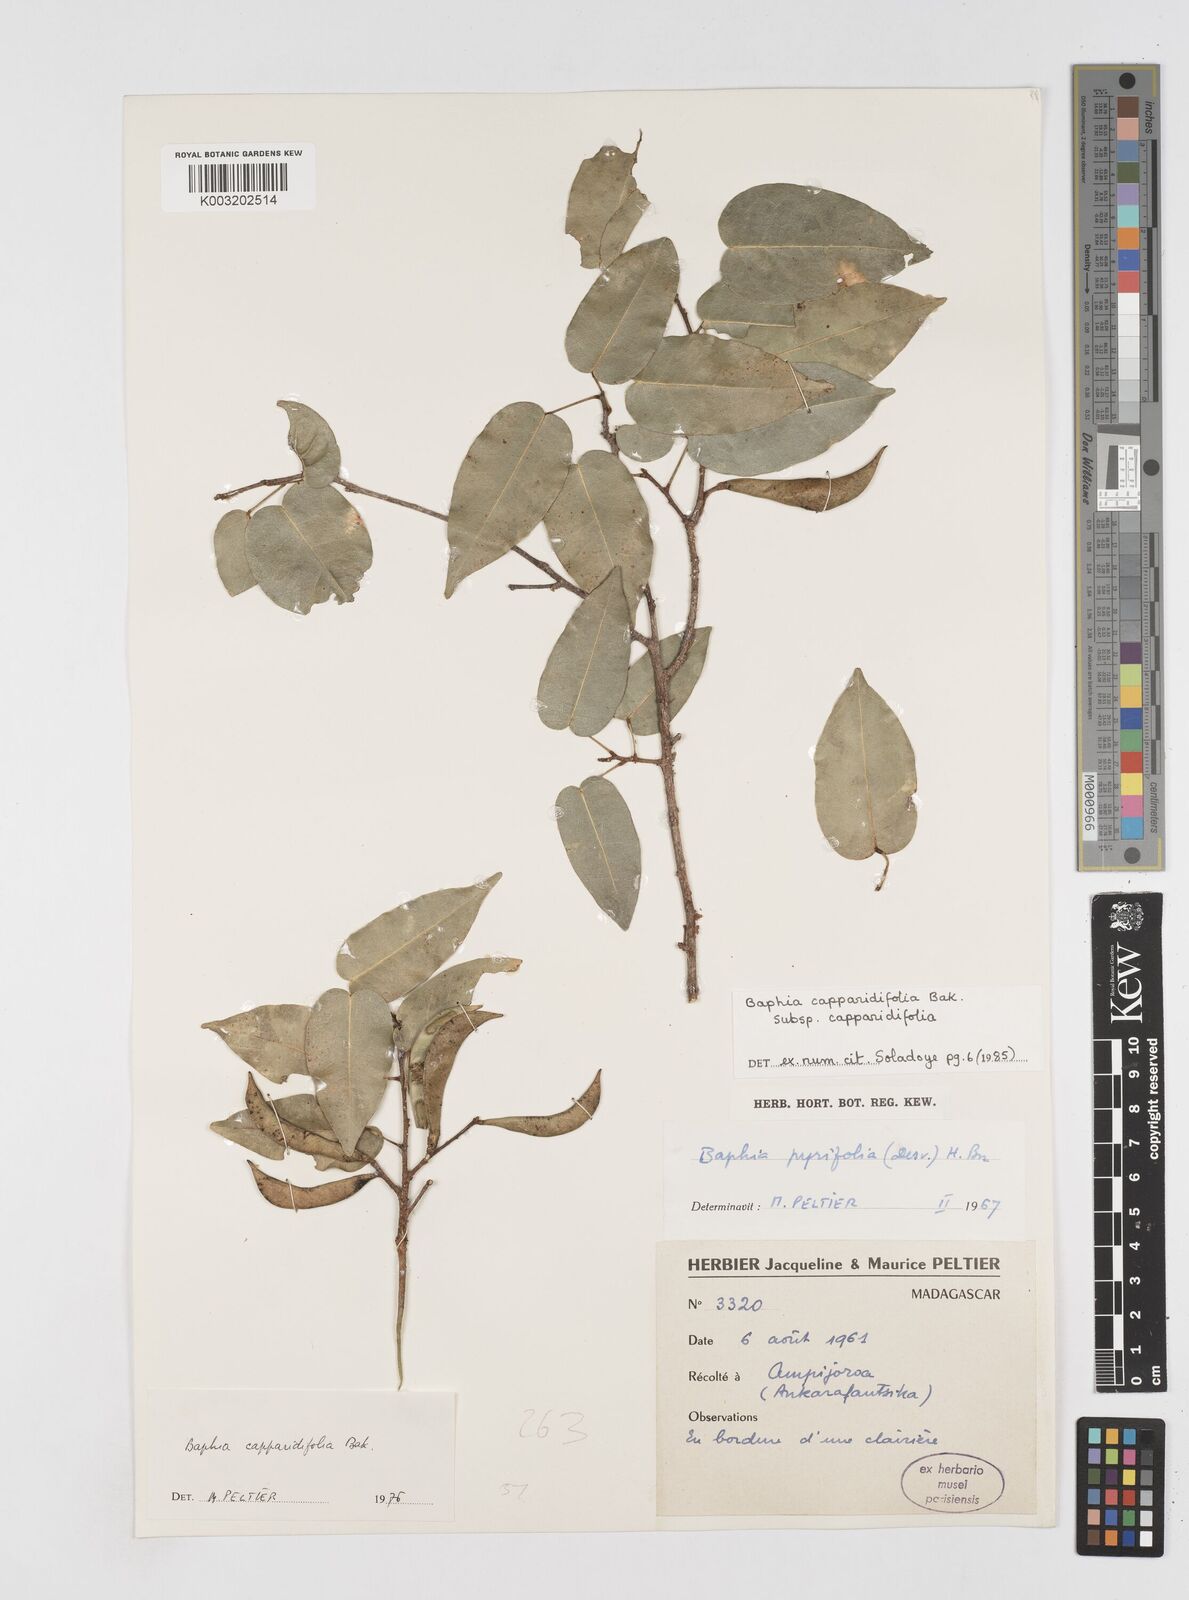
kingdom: Plantae
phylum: Tracheophyta
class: Magnoliopsida
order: Fabales
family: Fabaceae
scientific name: Fabaceae
